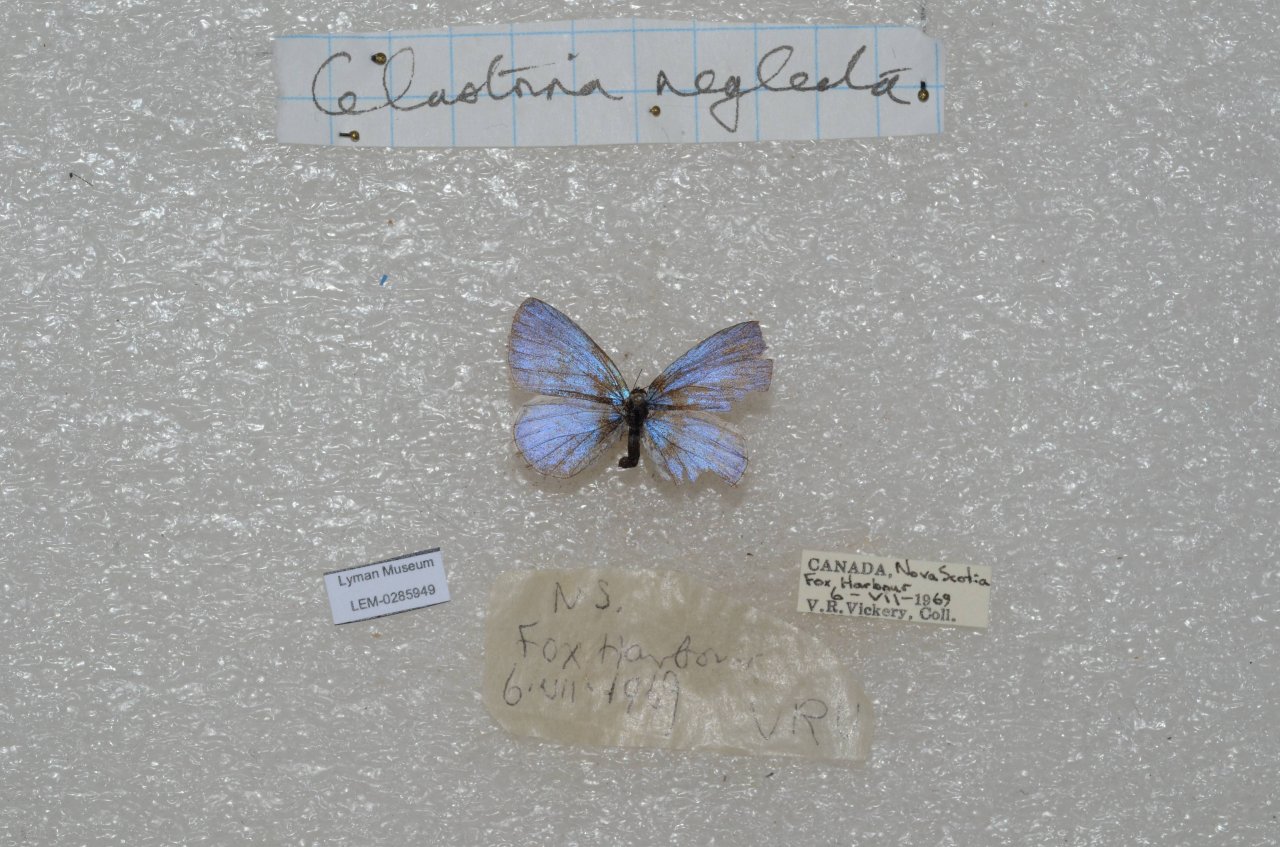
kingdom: Animalia
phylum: Arthropoda
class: Insecta
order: Lepidoptera
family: Lycaenidae
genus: Celastrina
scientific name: Celastrina
